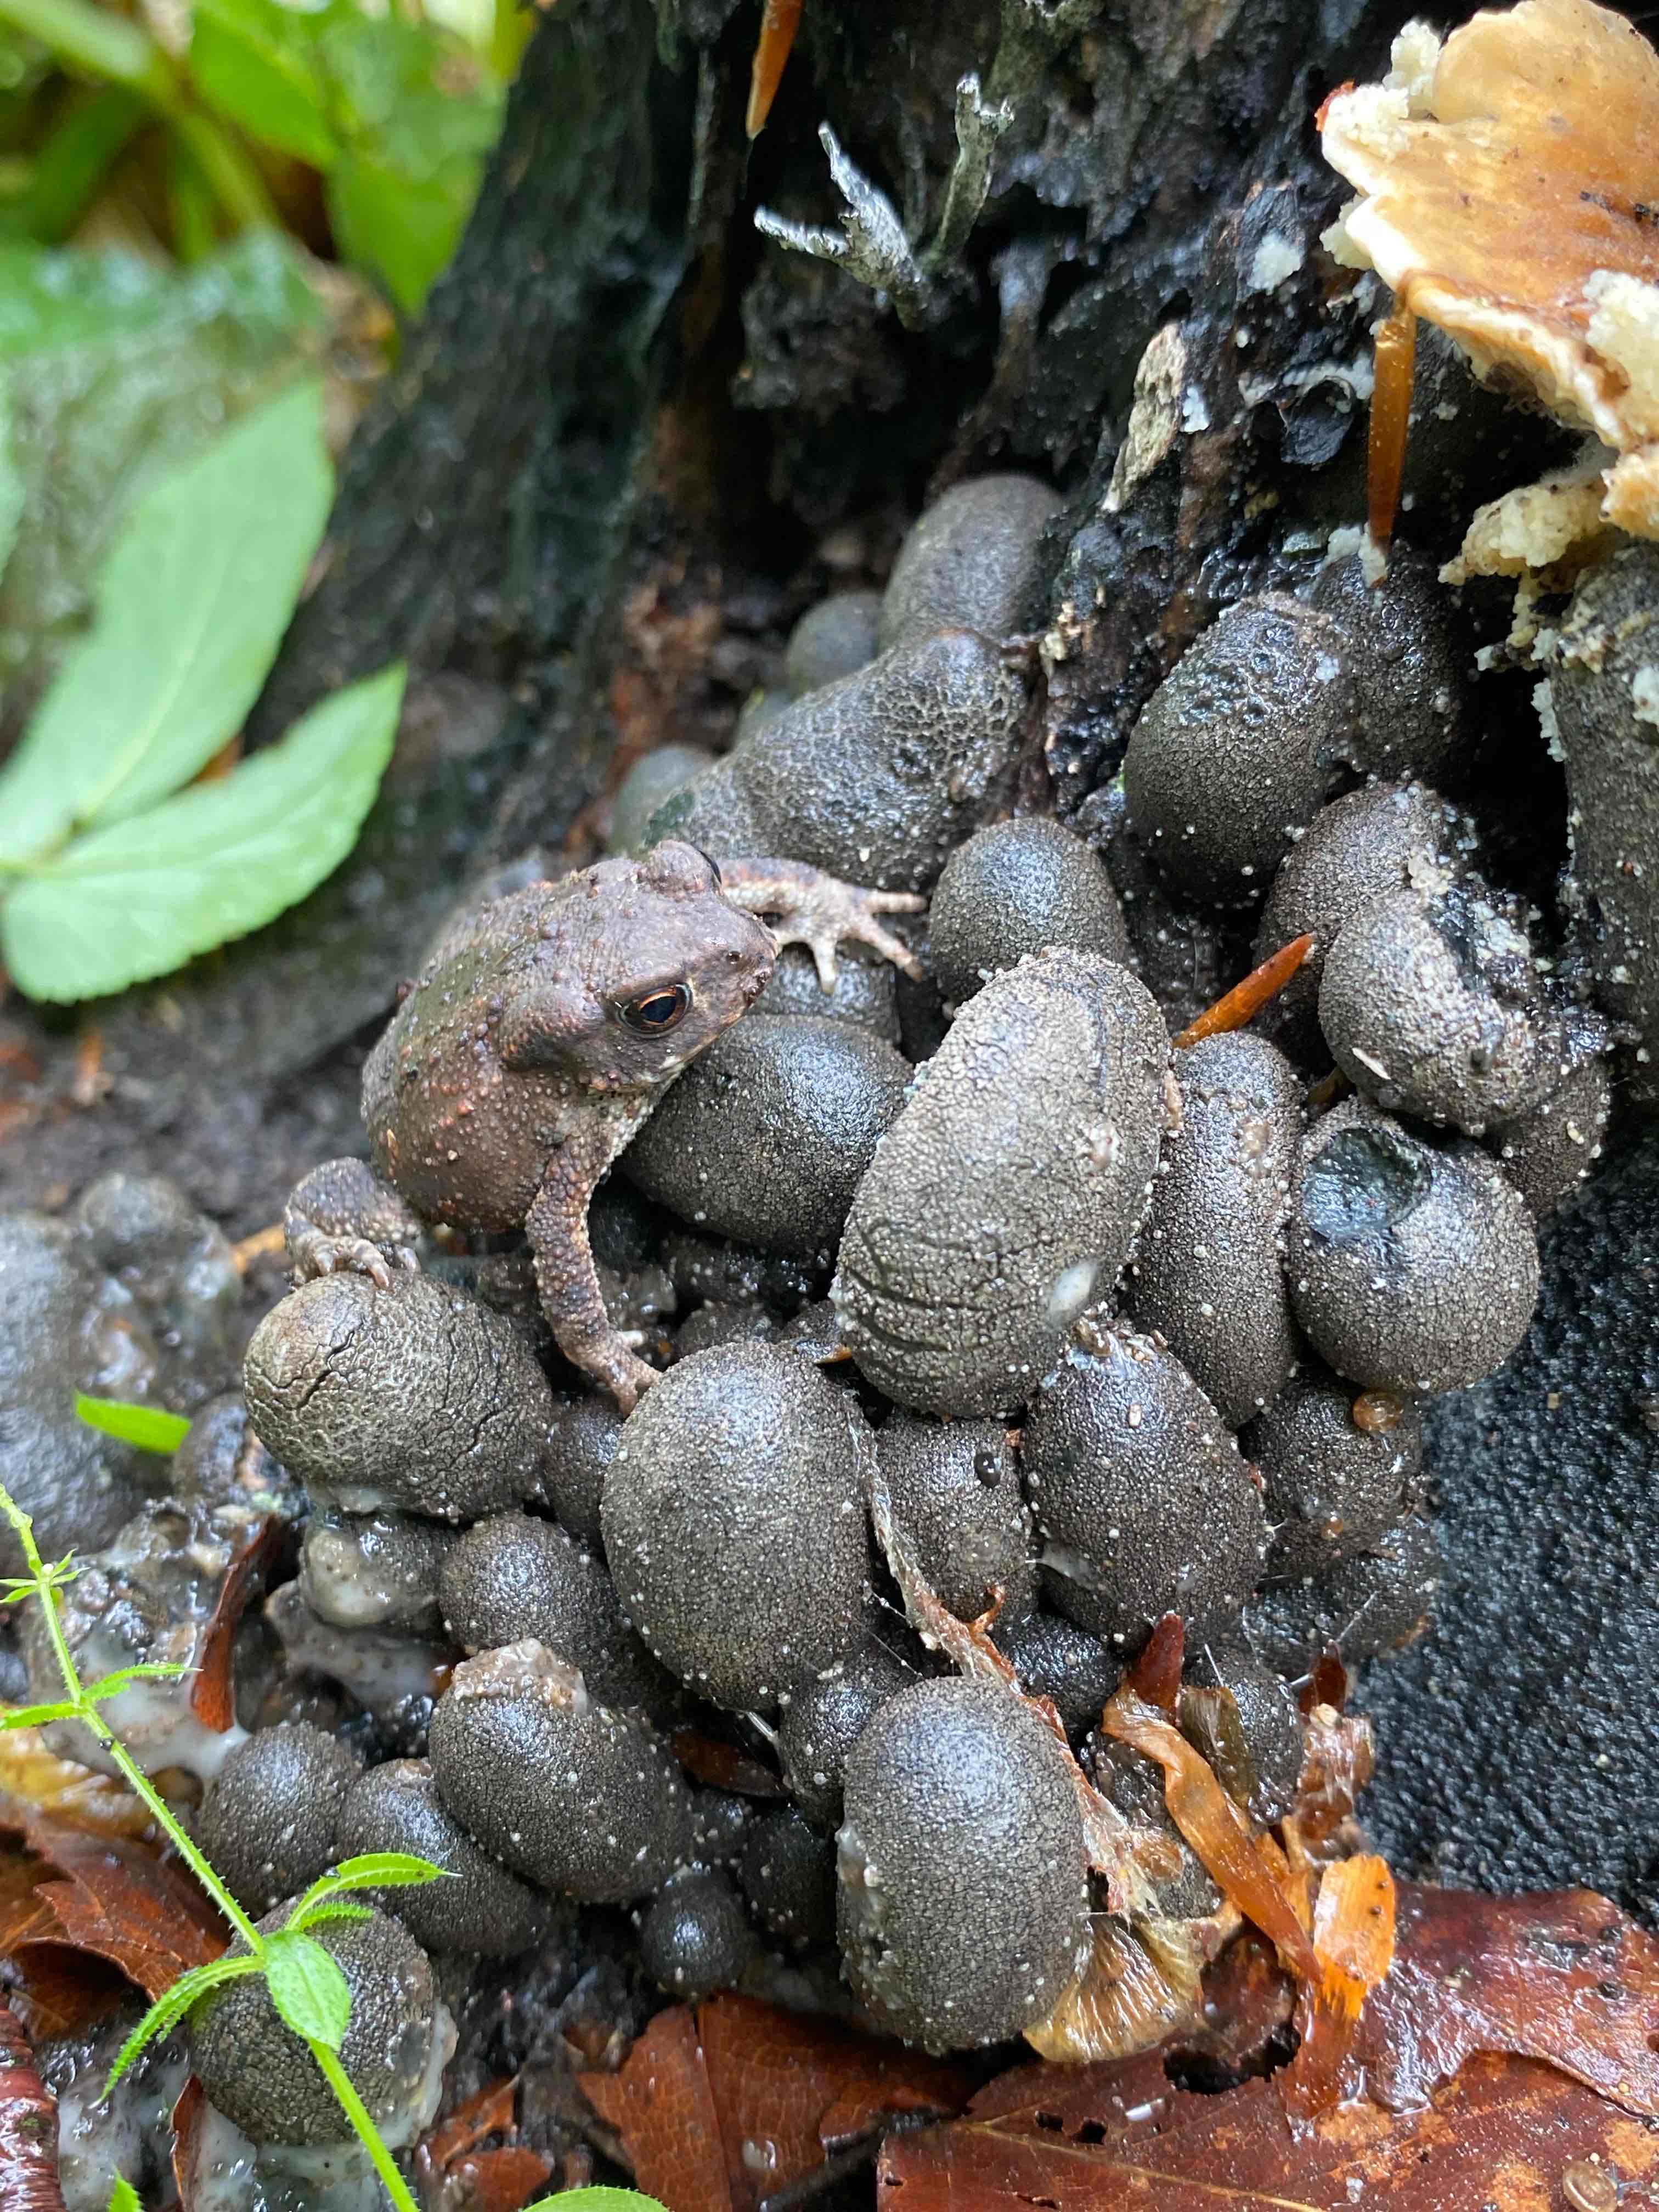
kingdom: Fungi
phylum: Ascomycota
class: Sordariomycetes
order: Xylariales
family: Xylariaceae
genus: Xylaria
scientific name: Xylaria polymorpha
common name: kølle-stødsvamp
